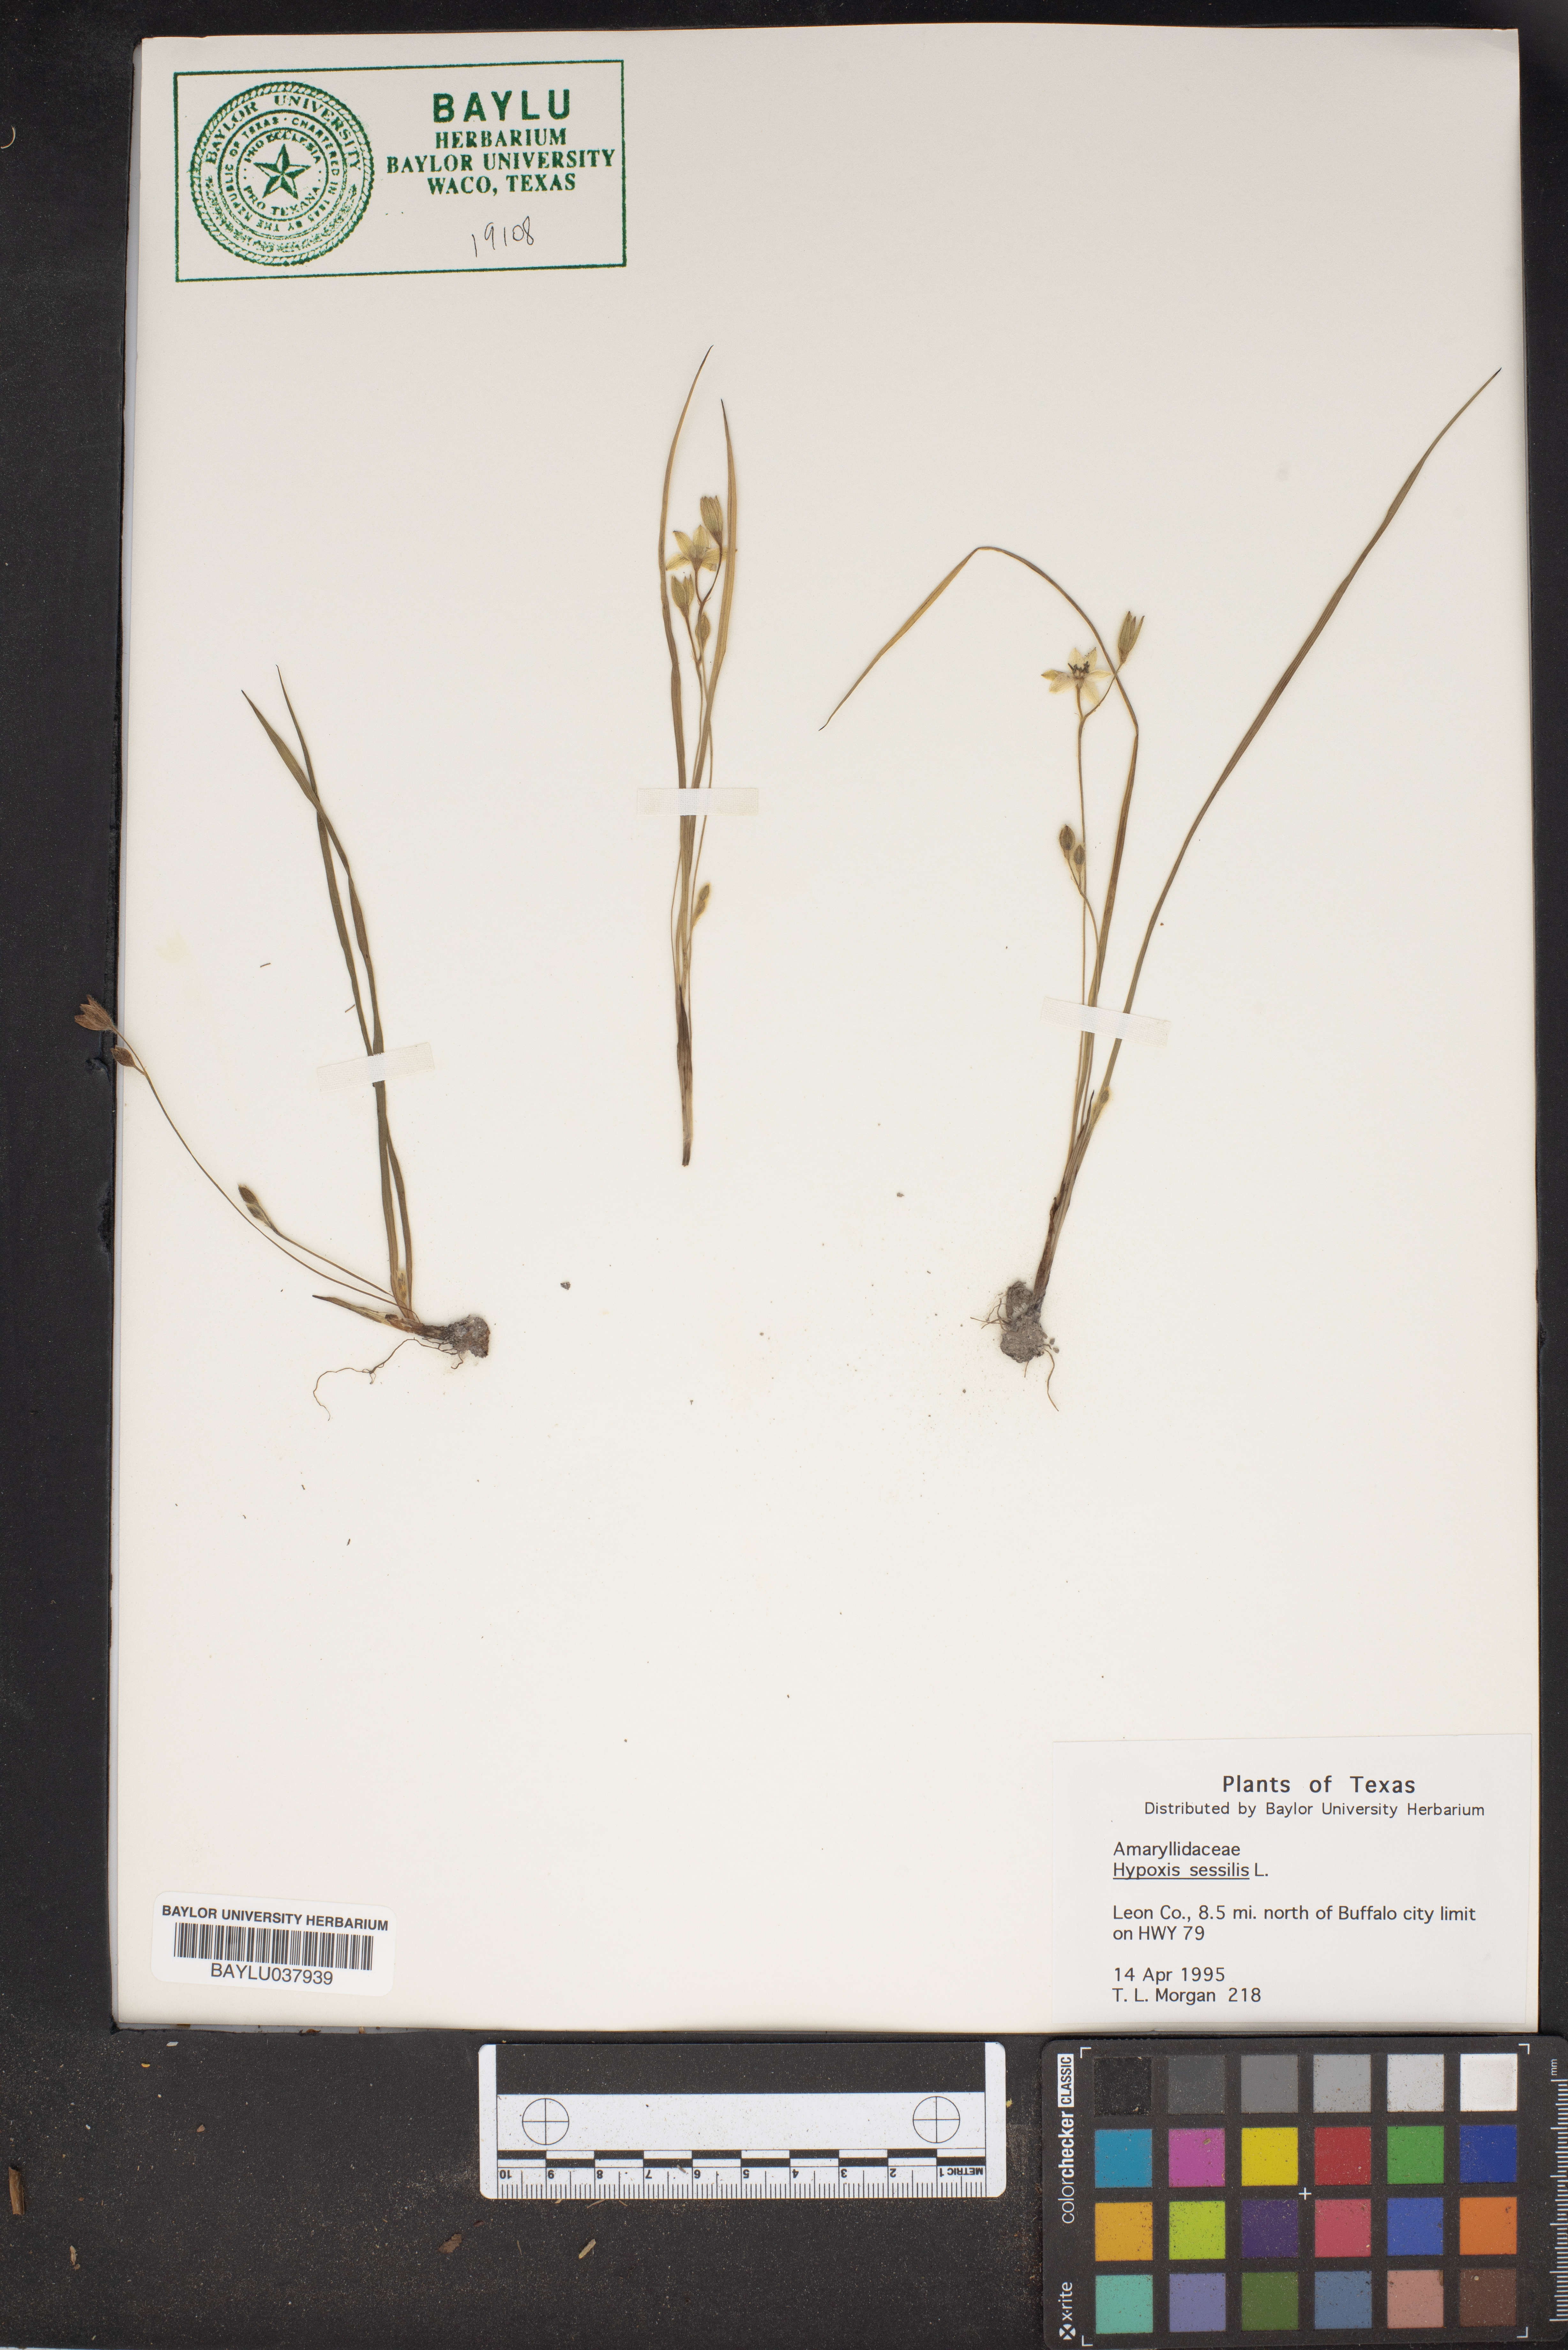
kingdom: Plantae
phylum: Tracheophyta
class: Liliopsida
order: Asparagales
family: Hypoxidaceae
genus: Hypoxis
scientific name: Hypoxis sessilis
